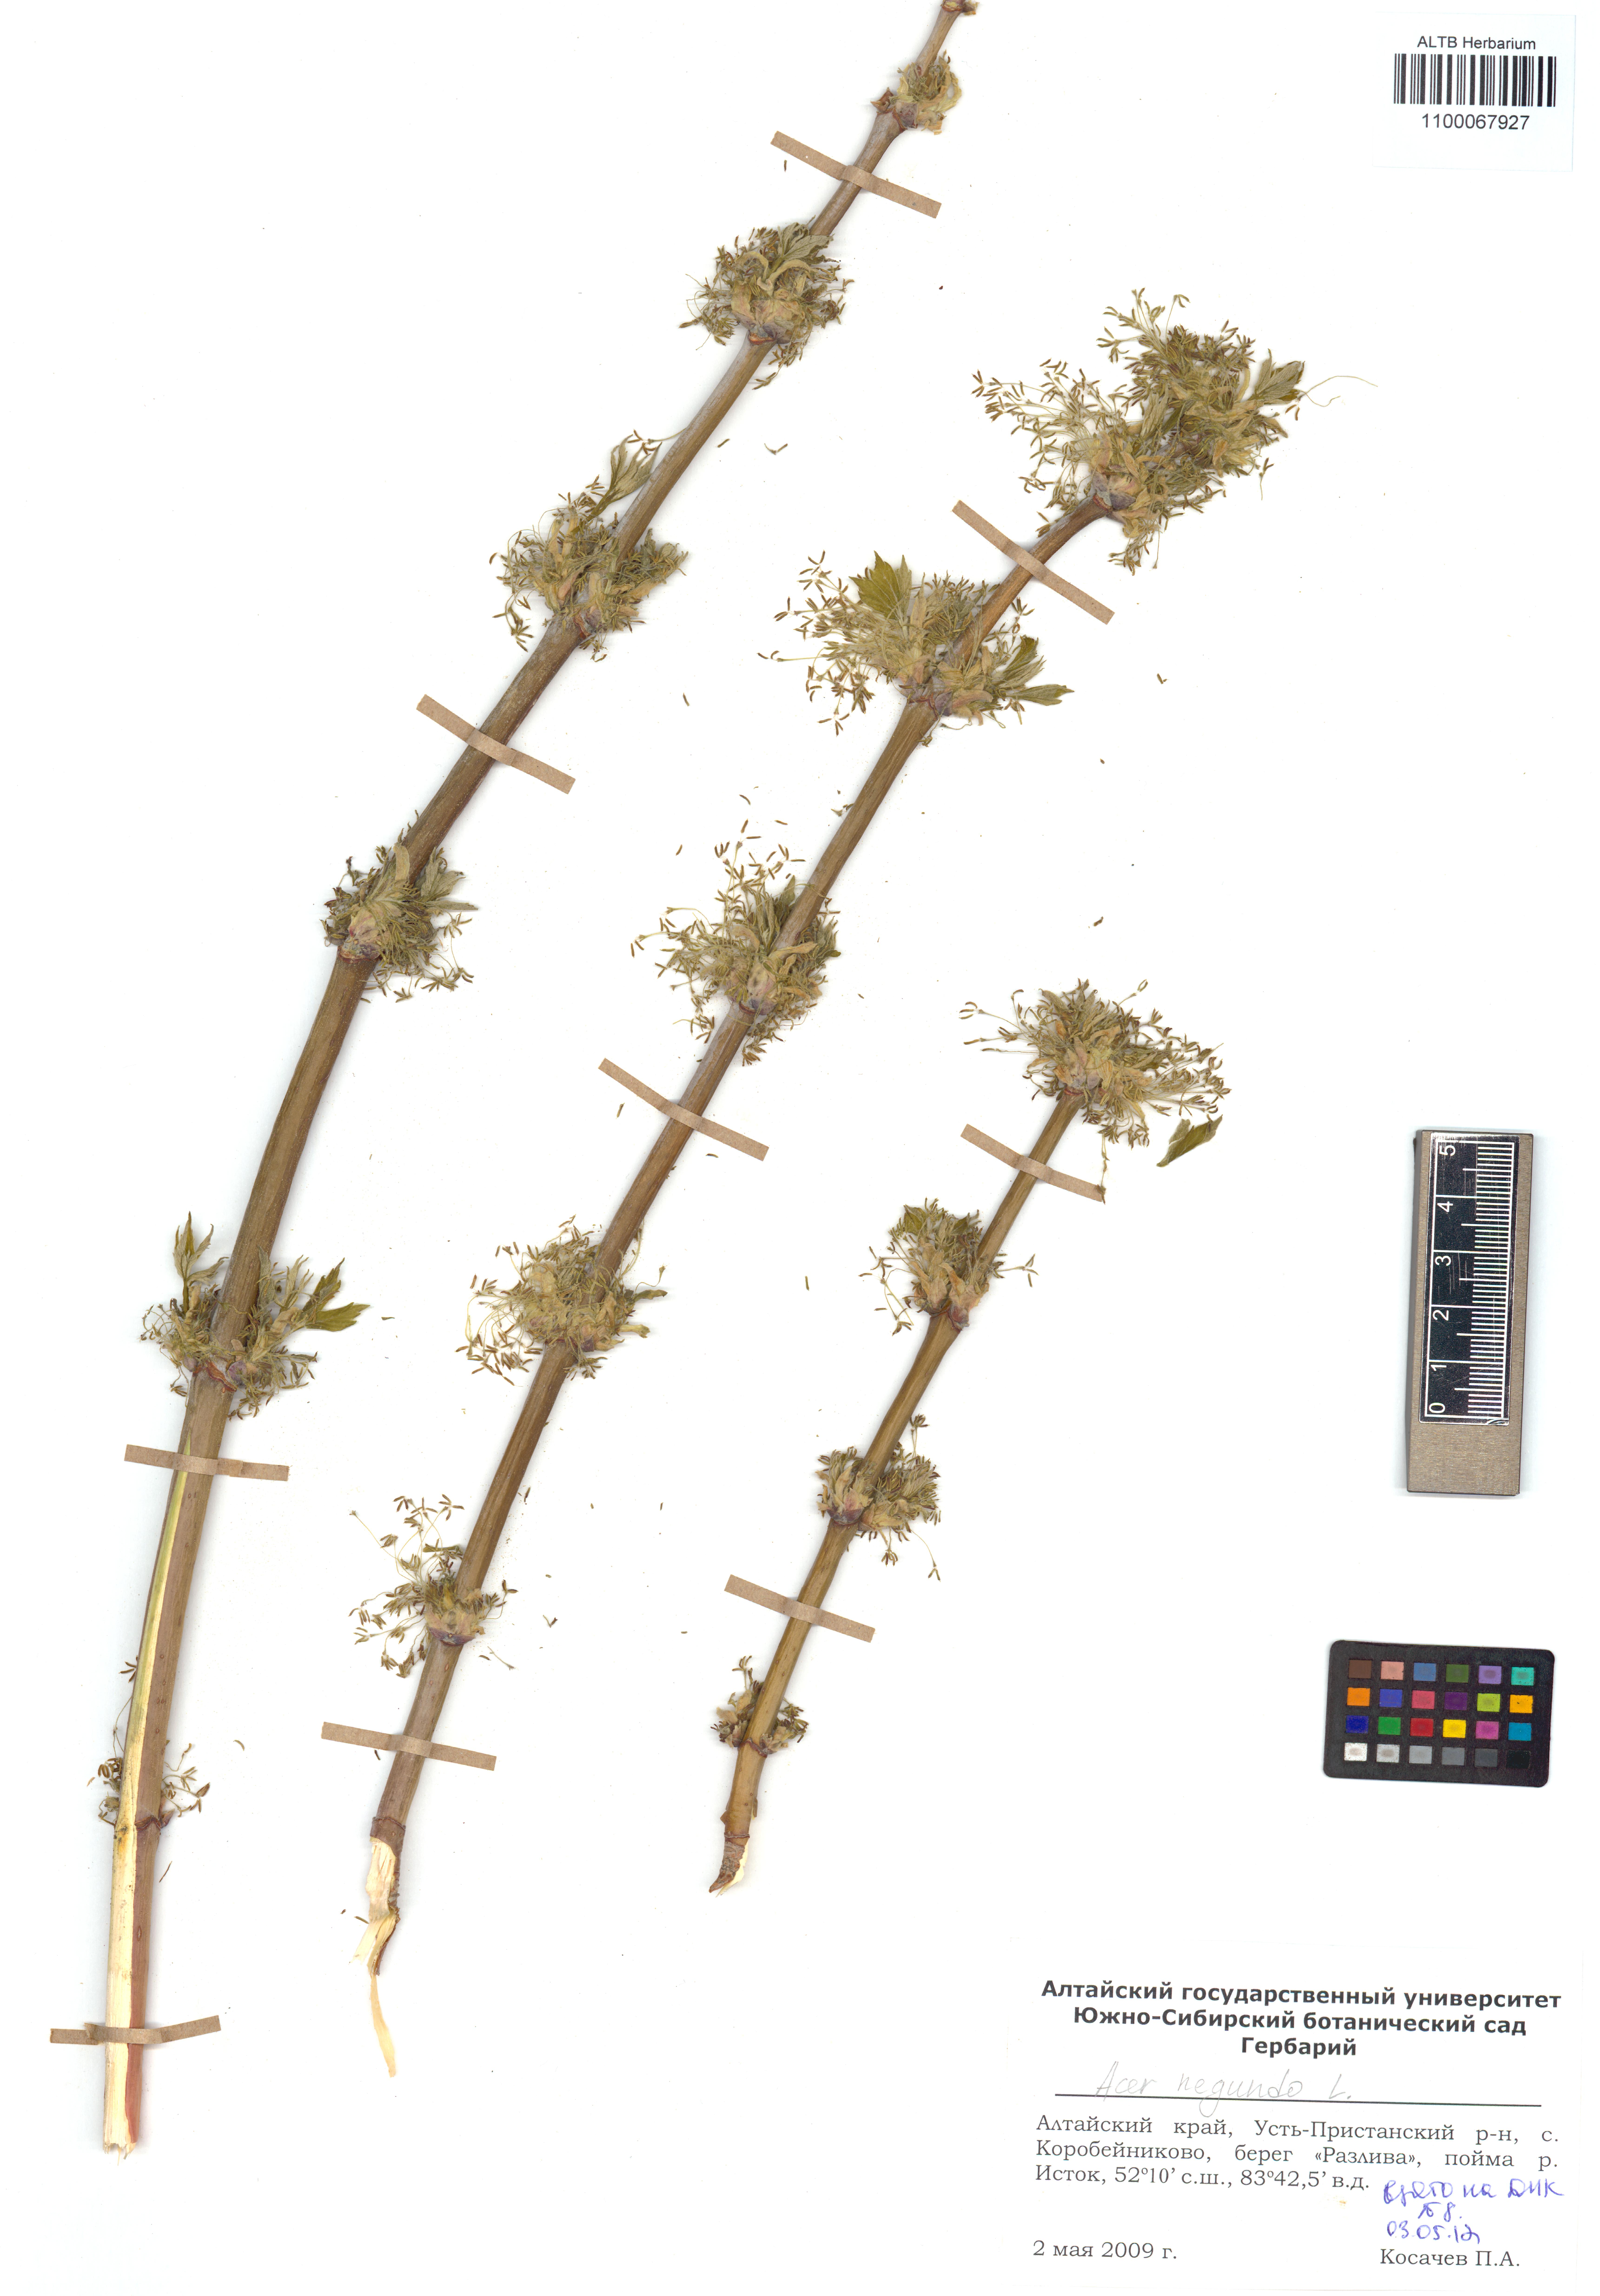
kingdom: Plantae
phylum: Tracheophyta
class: Magnoliopsida
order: Sapindales
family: Sapindaceae
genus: Acer
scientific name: Acer negundo
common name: Ashleaf maple
